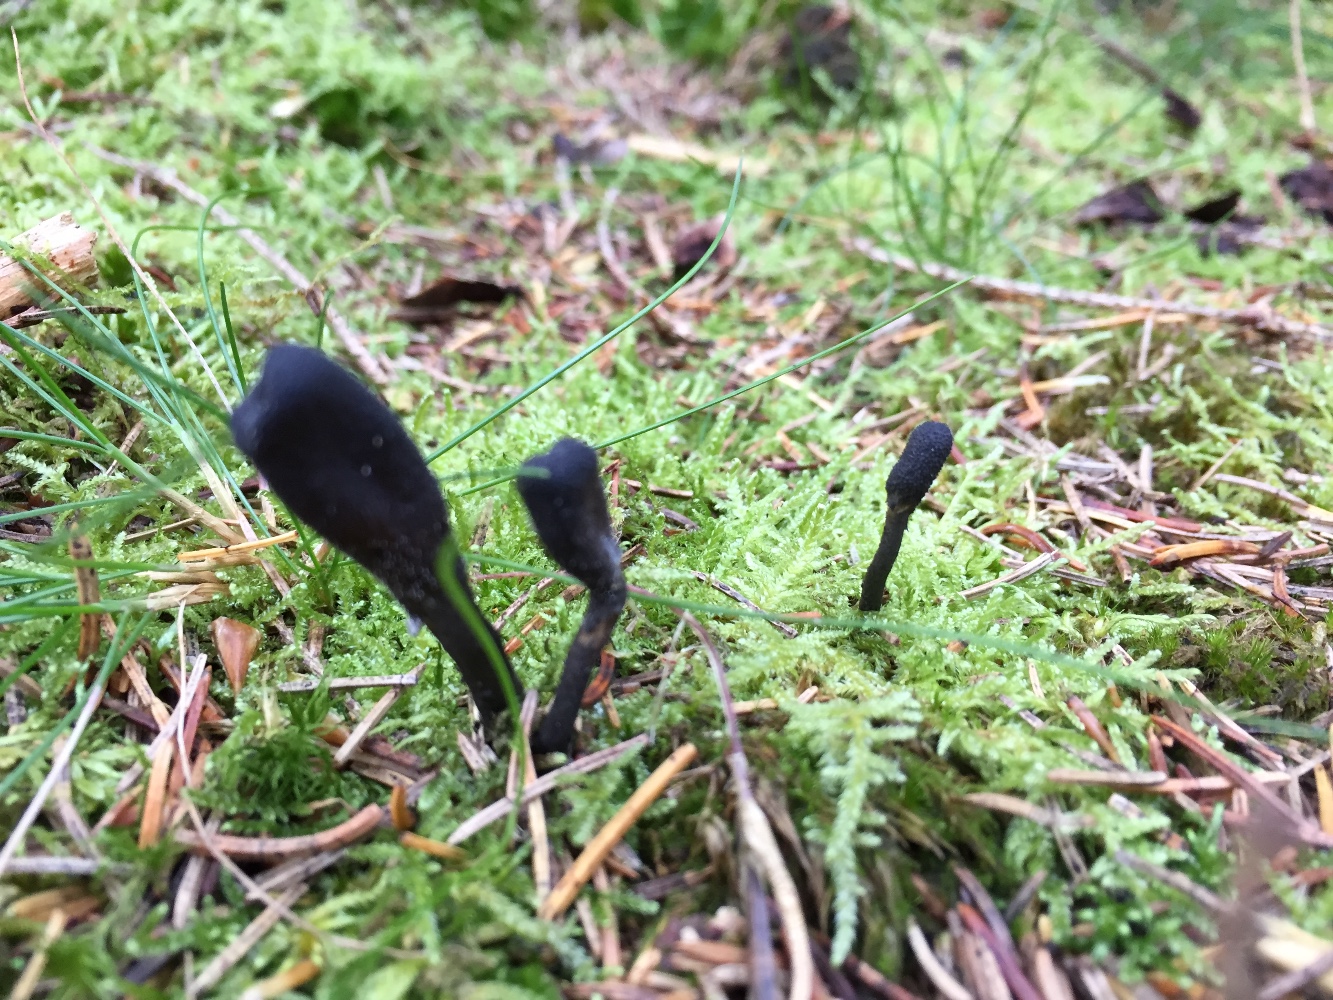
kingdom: Fungi
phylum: Ascomycota
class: Sordariomycetes
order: Hypocreales
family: Ophiocordycipitaceae
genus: Tolypocladium
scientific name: Tolypocladium ophioglossoides
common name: slank snyltekølle
